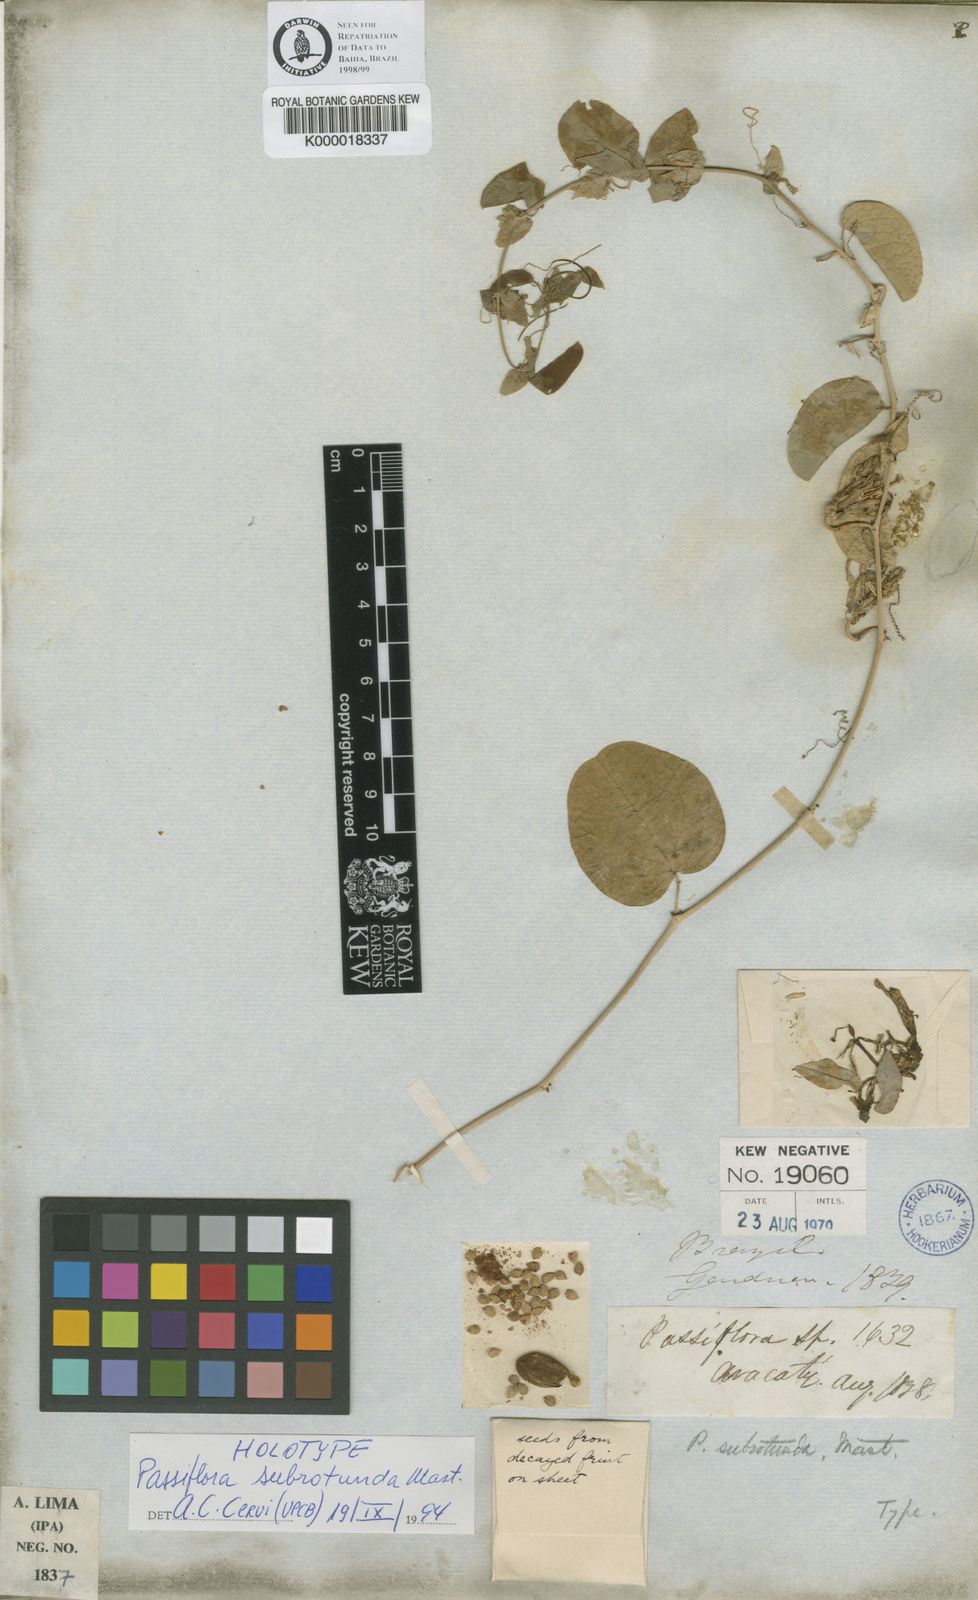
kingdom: Plantae
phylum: Tracheophyta
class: Magnoliopsida
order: Malpighiales
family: Passifloraceae
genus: Passiflora
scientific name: Passiflora subrotunda
